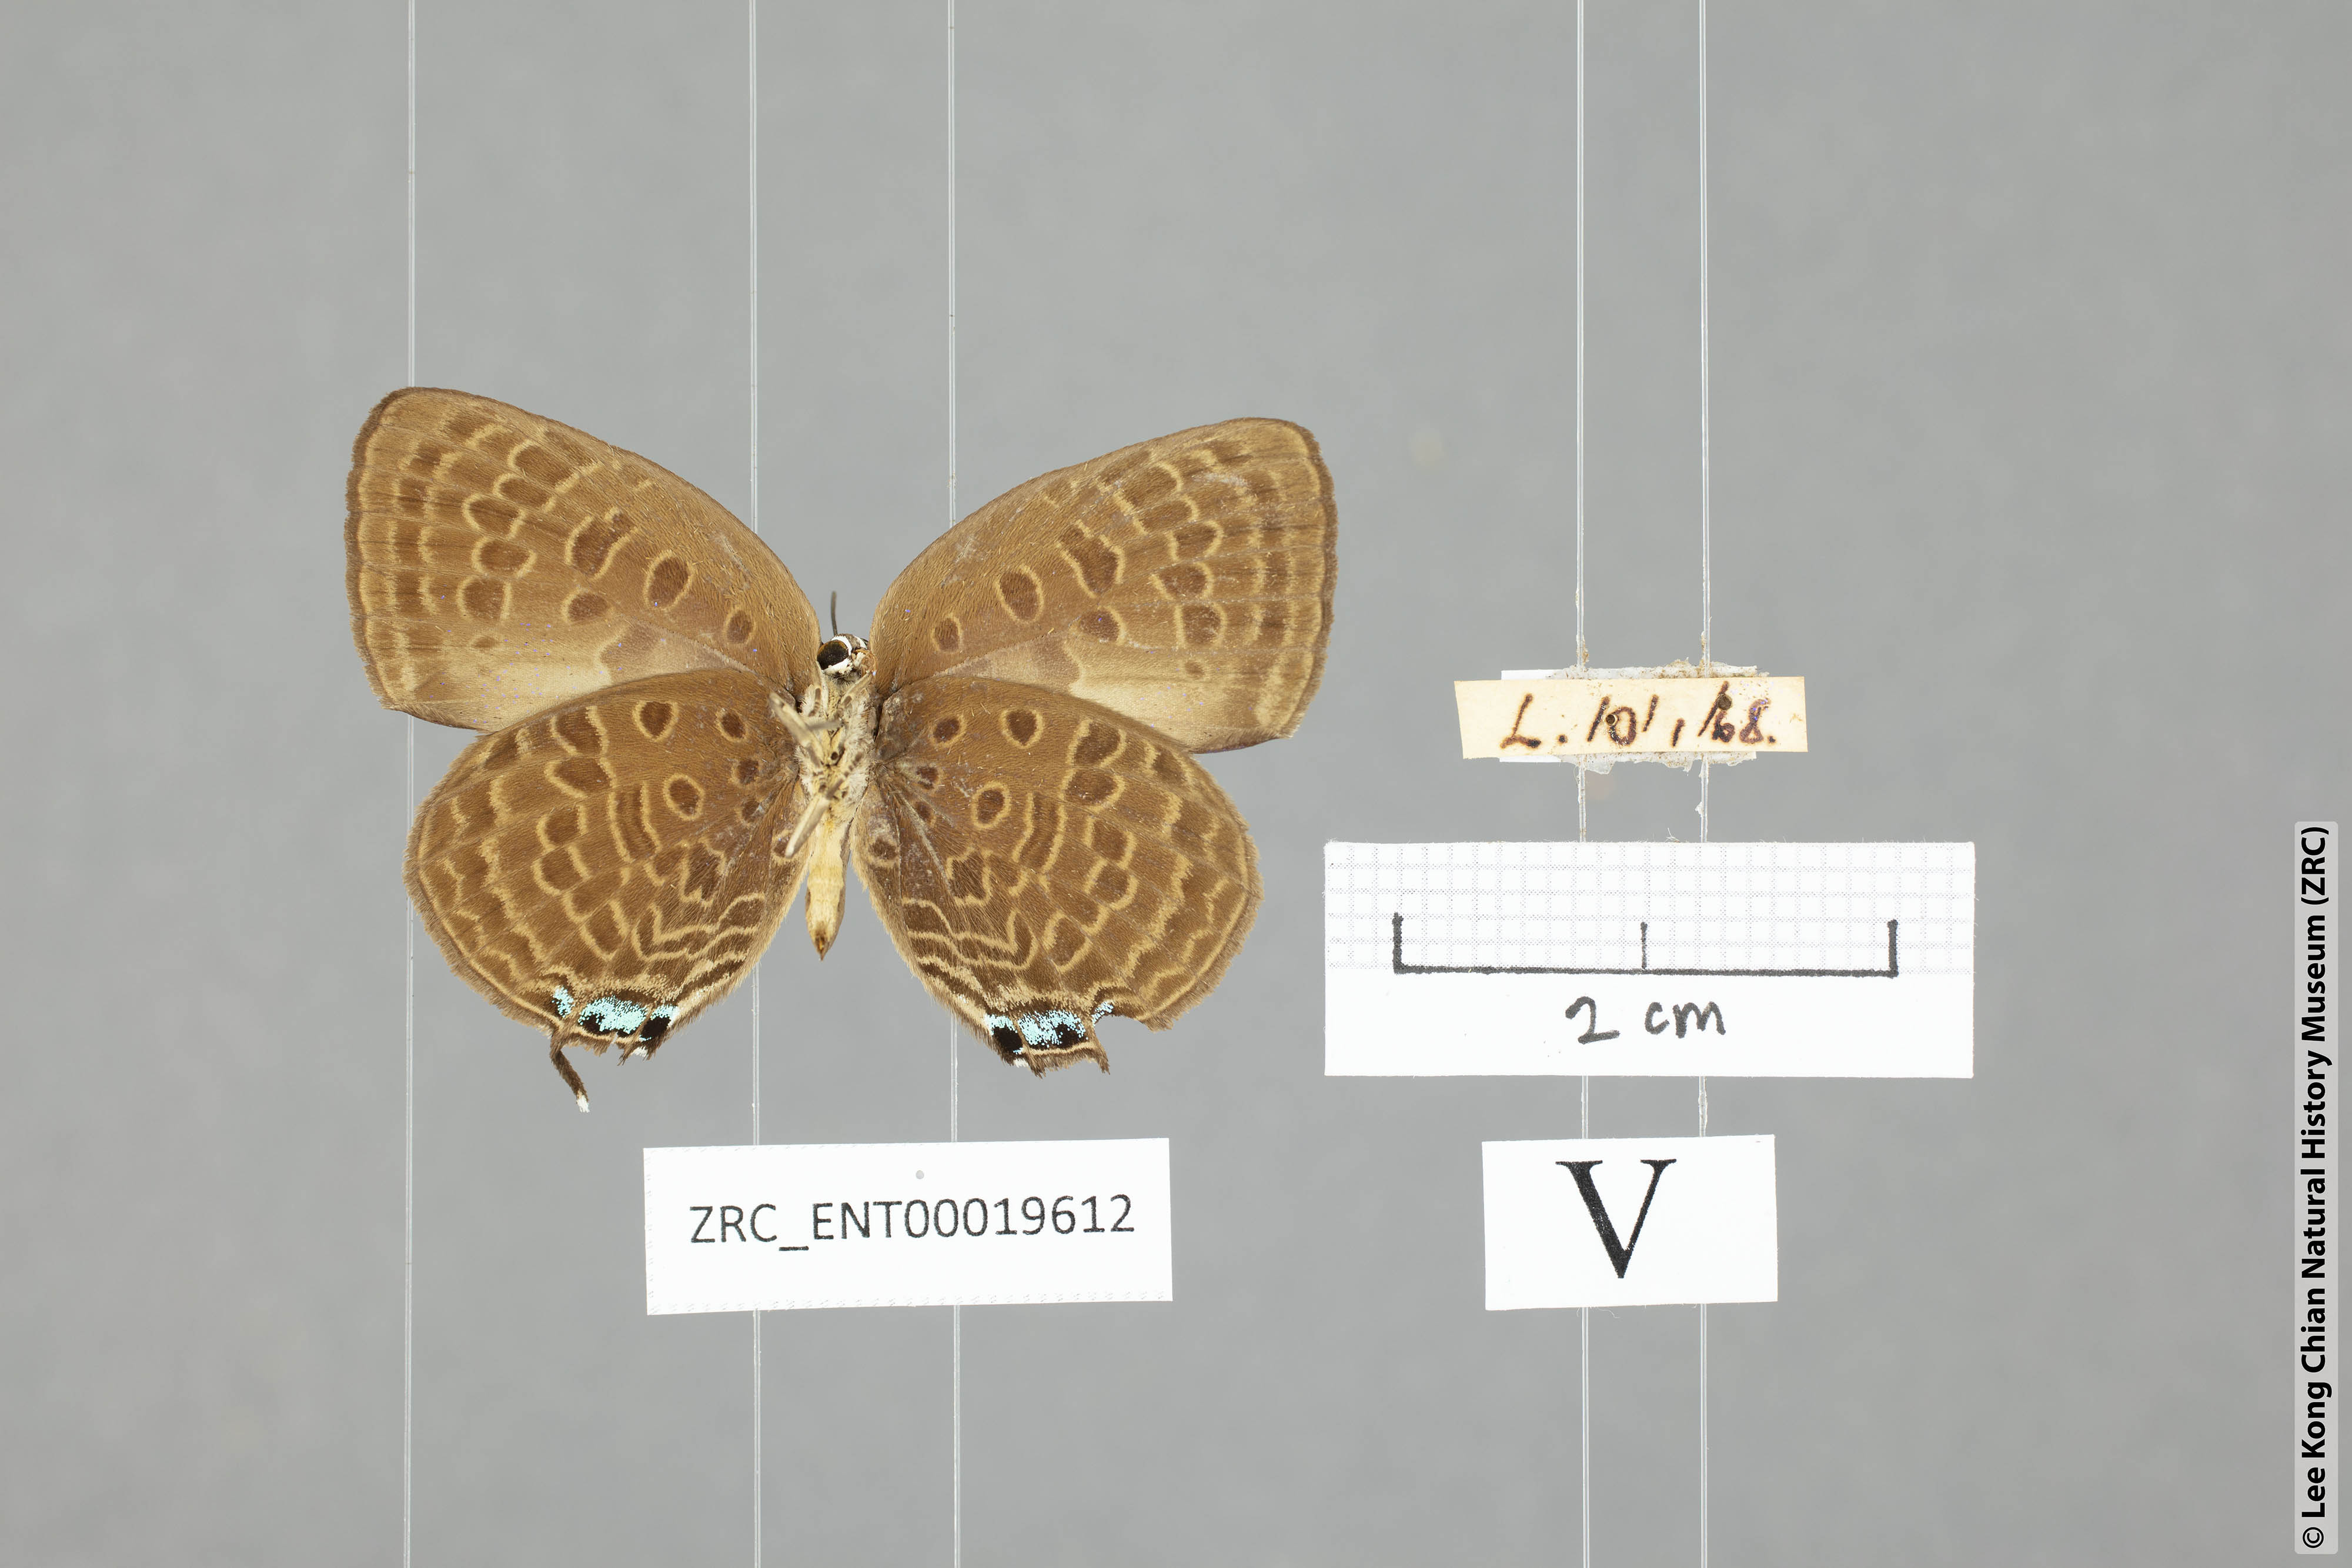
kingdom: Animalia
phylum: Arthropoda
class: Insecta
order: Lepidoptera
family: Lycaenidae
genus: Arhopala
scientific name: Arhopala atosia
